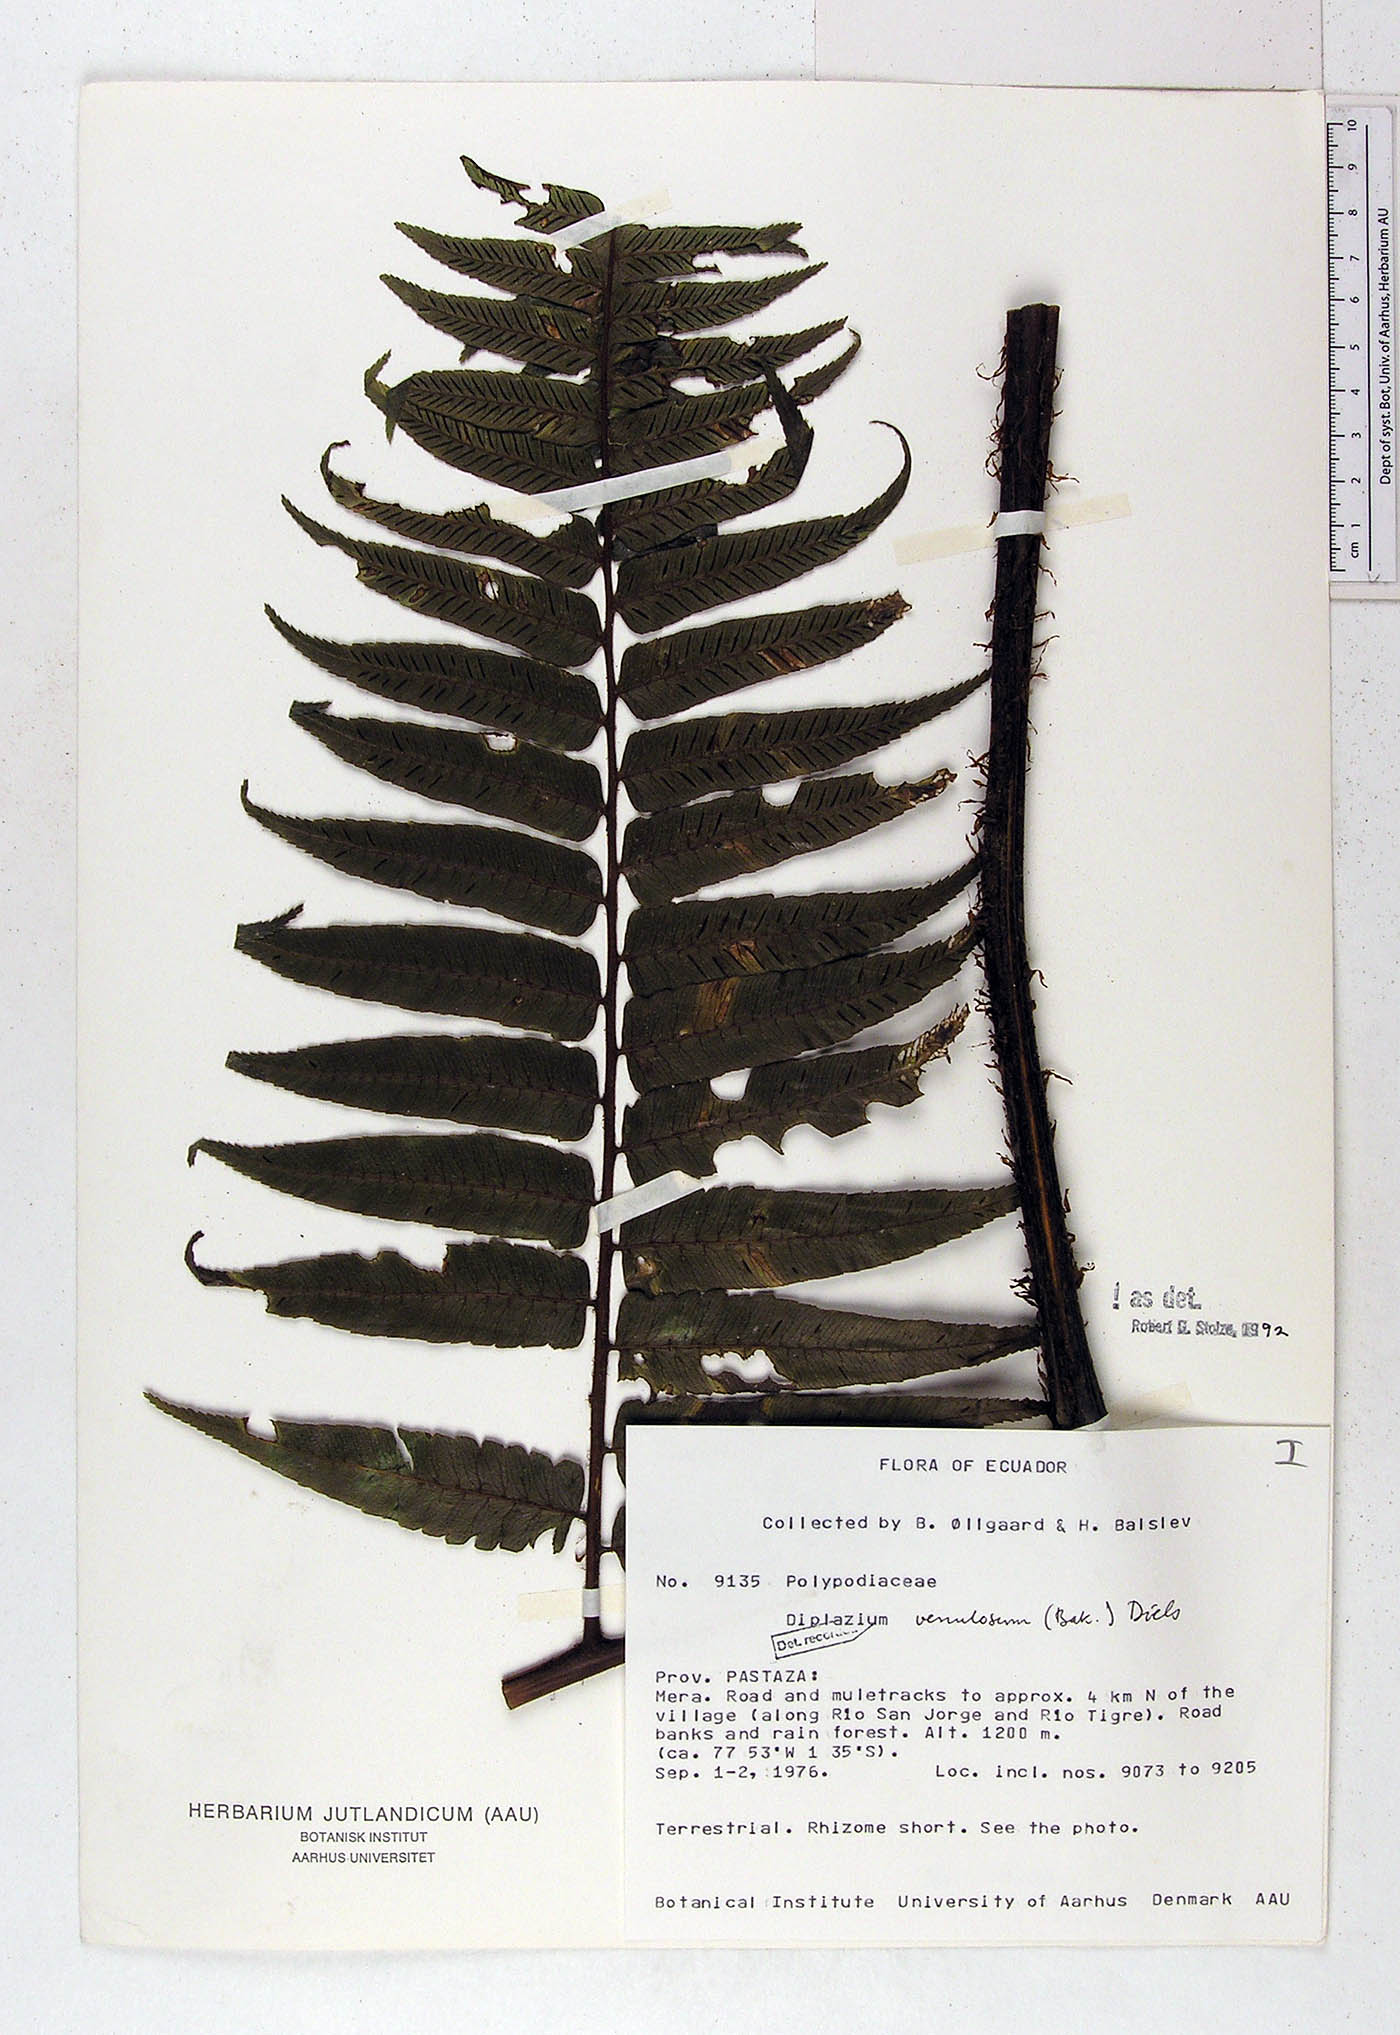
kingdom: Plantae
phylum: Tracheophyta
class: Polypodiopsida
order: Polypodiales
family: Athyriaceae
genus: Diplazium
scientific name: Diplazium venulosum
